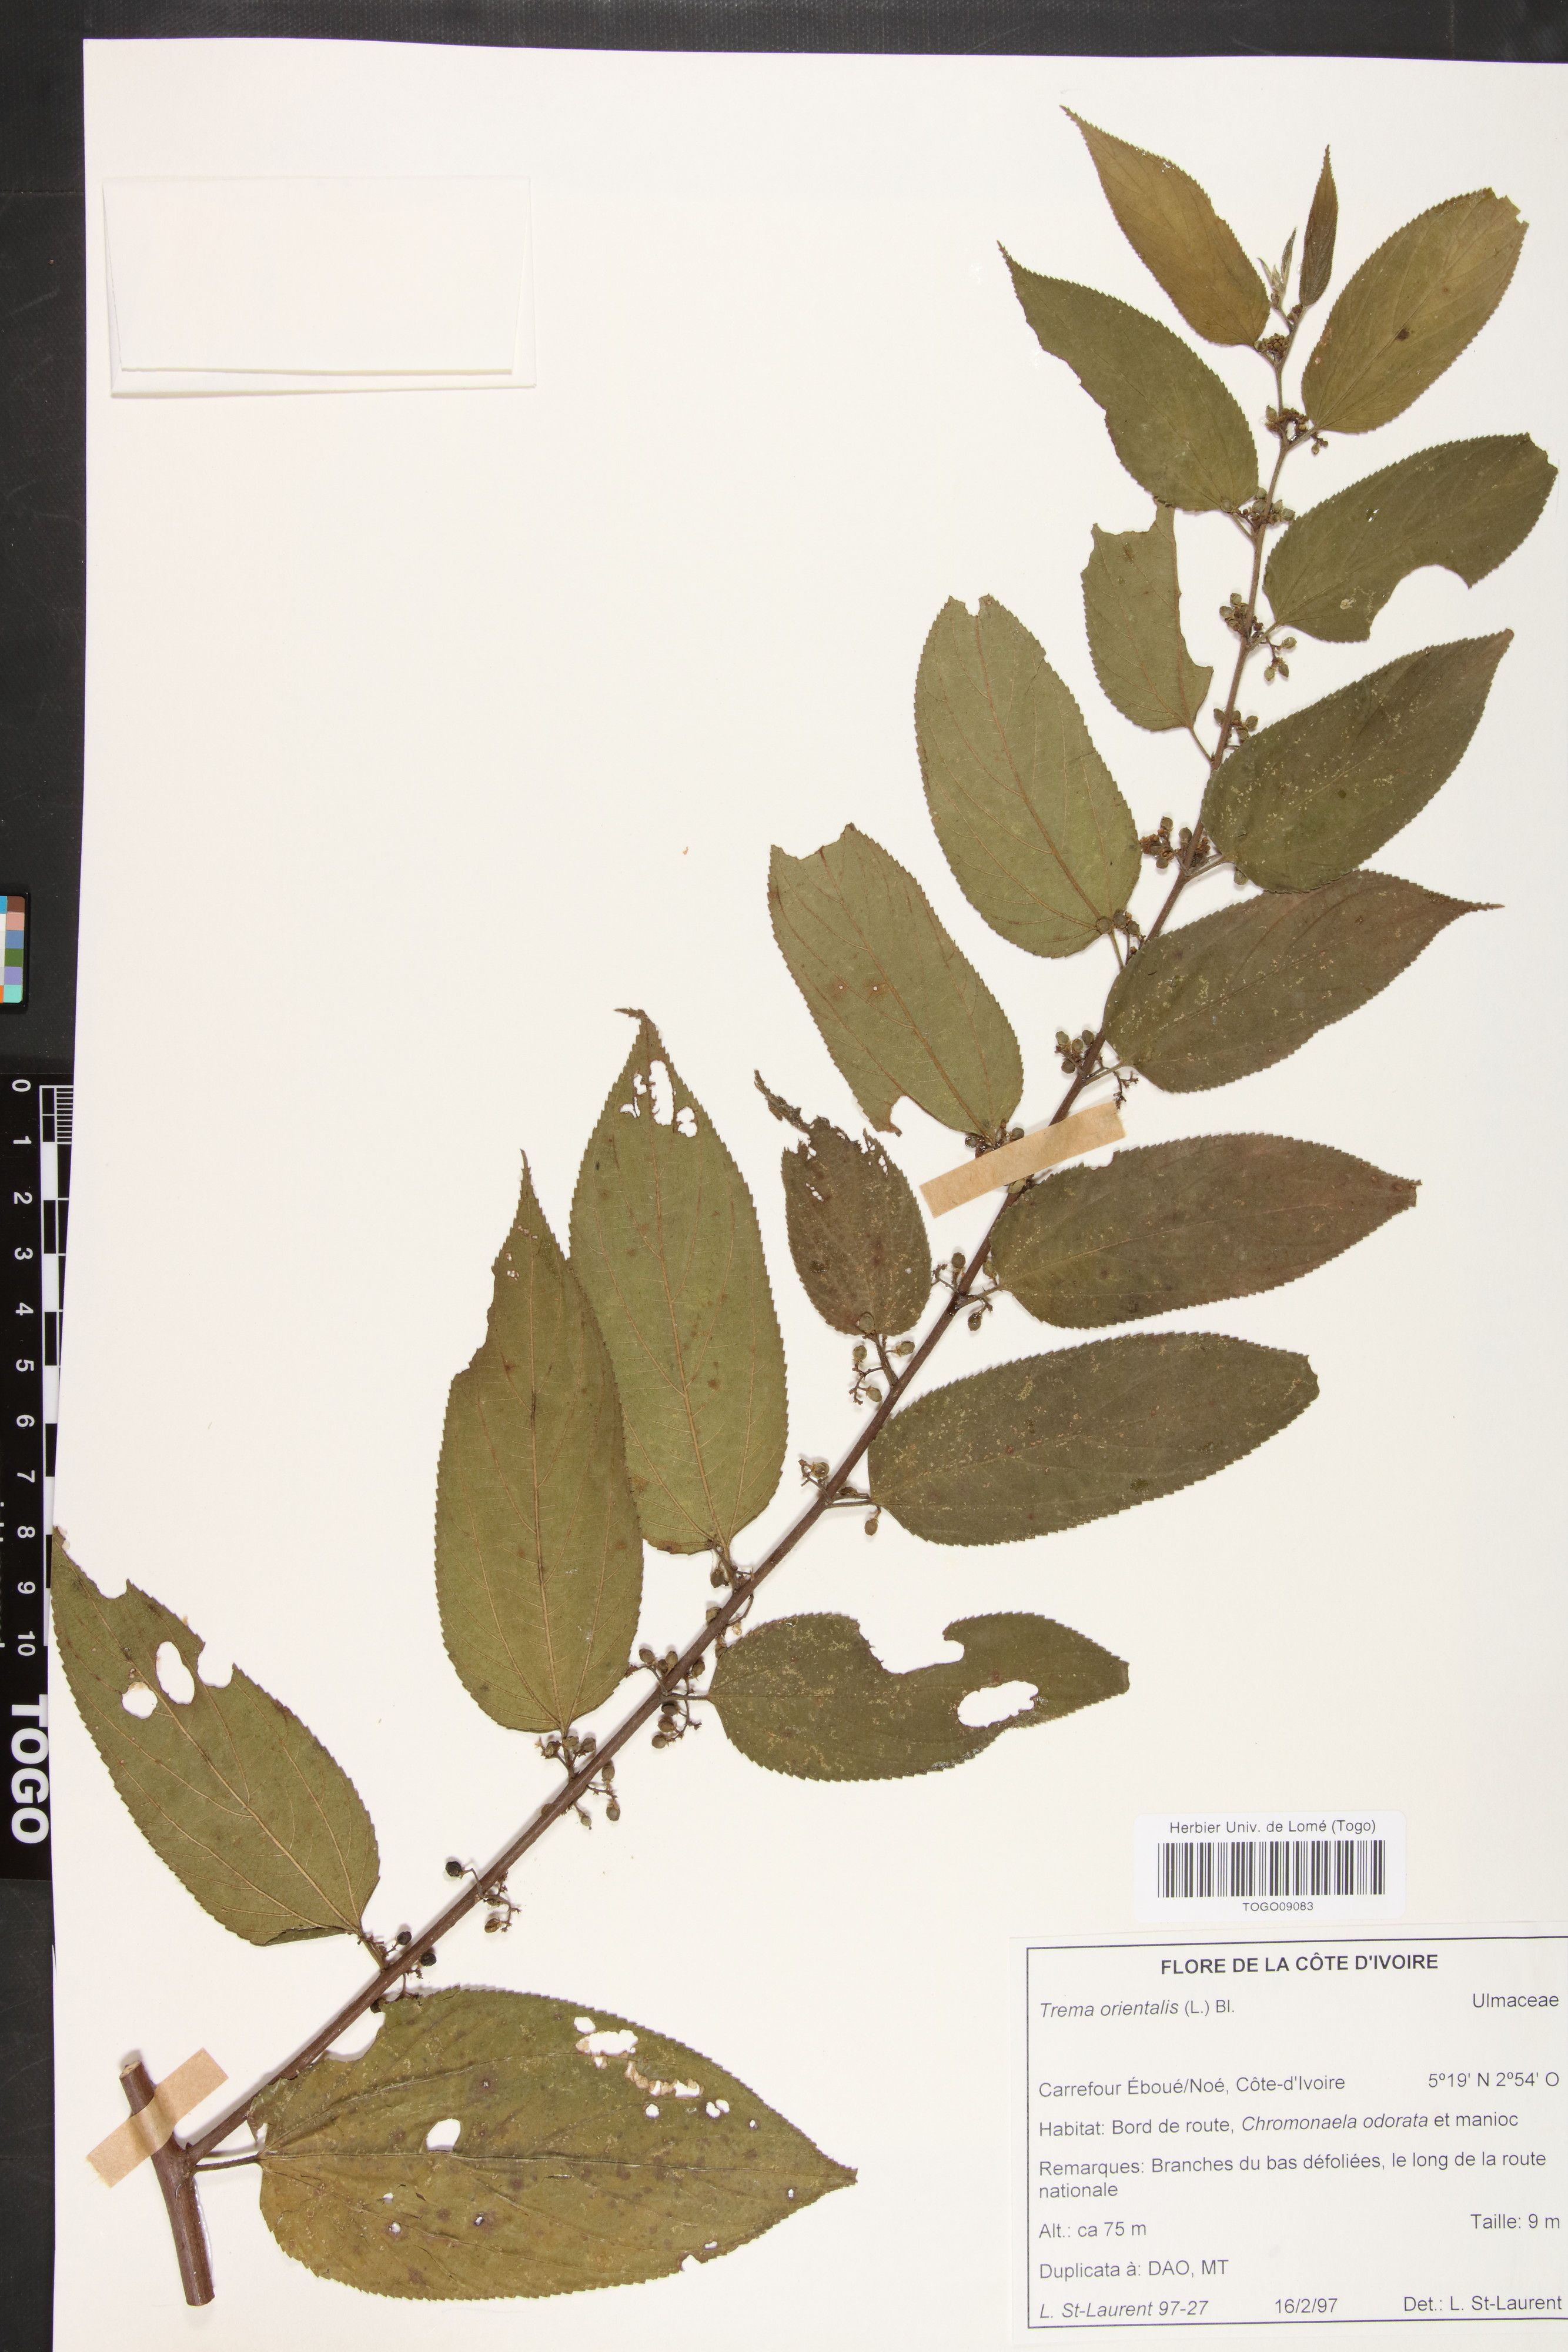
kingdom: Plantae
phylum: Tracheophyta
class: Magnoliopsida
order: Rosales
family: Cannabaceae
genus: Trema
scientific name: Trema orientale
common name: Indian charcoal tree
